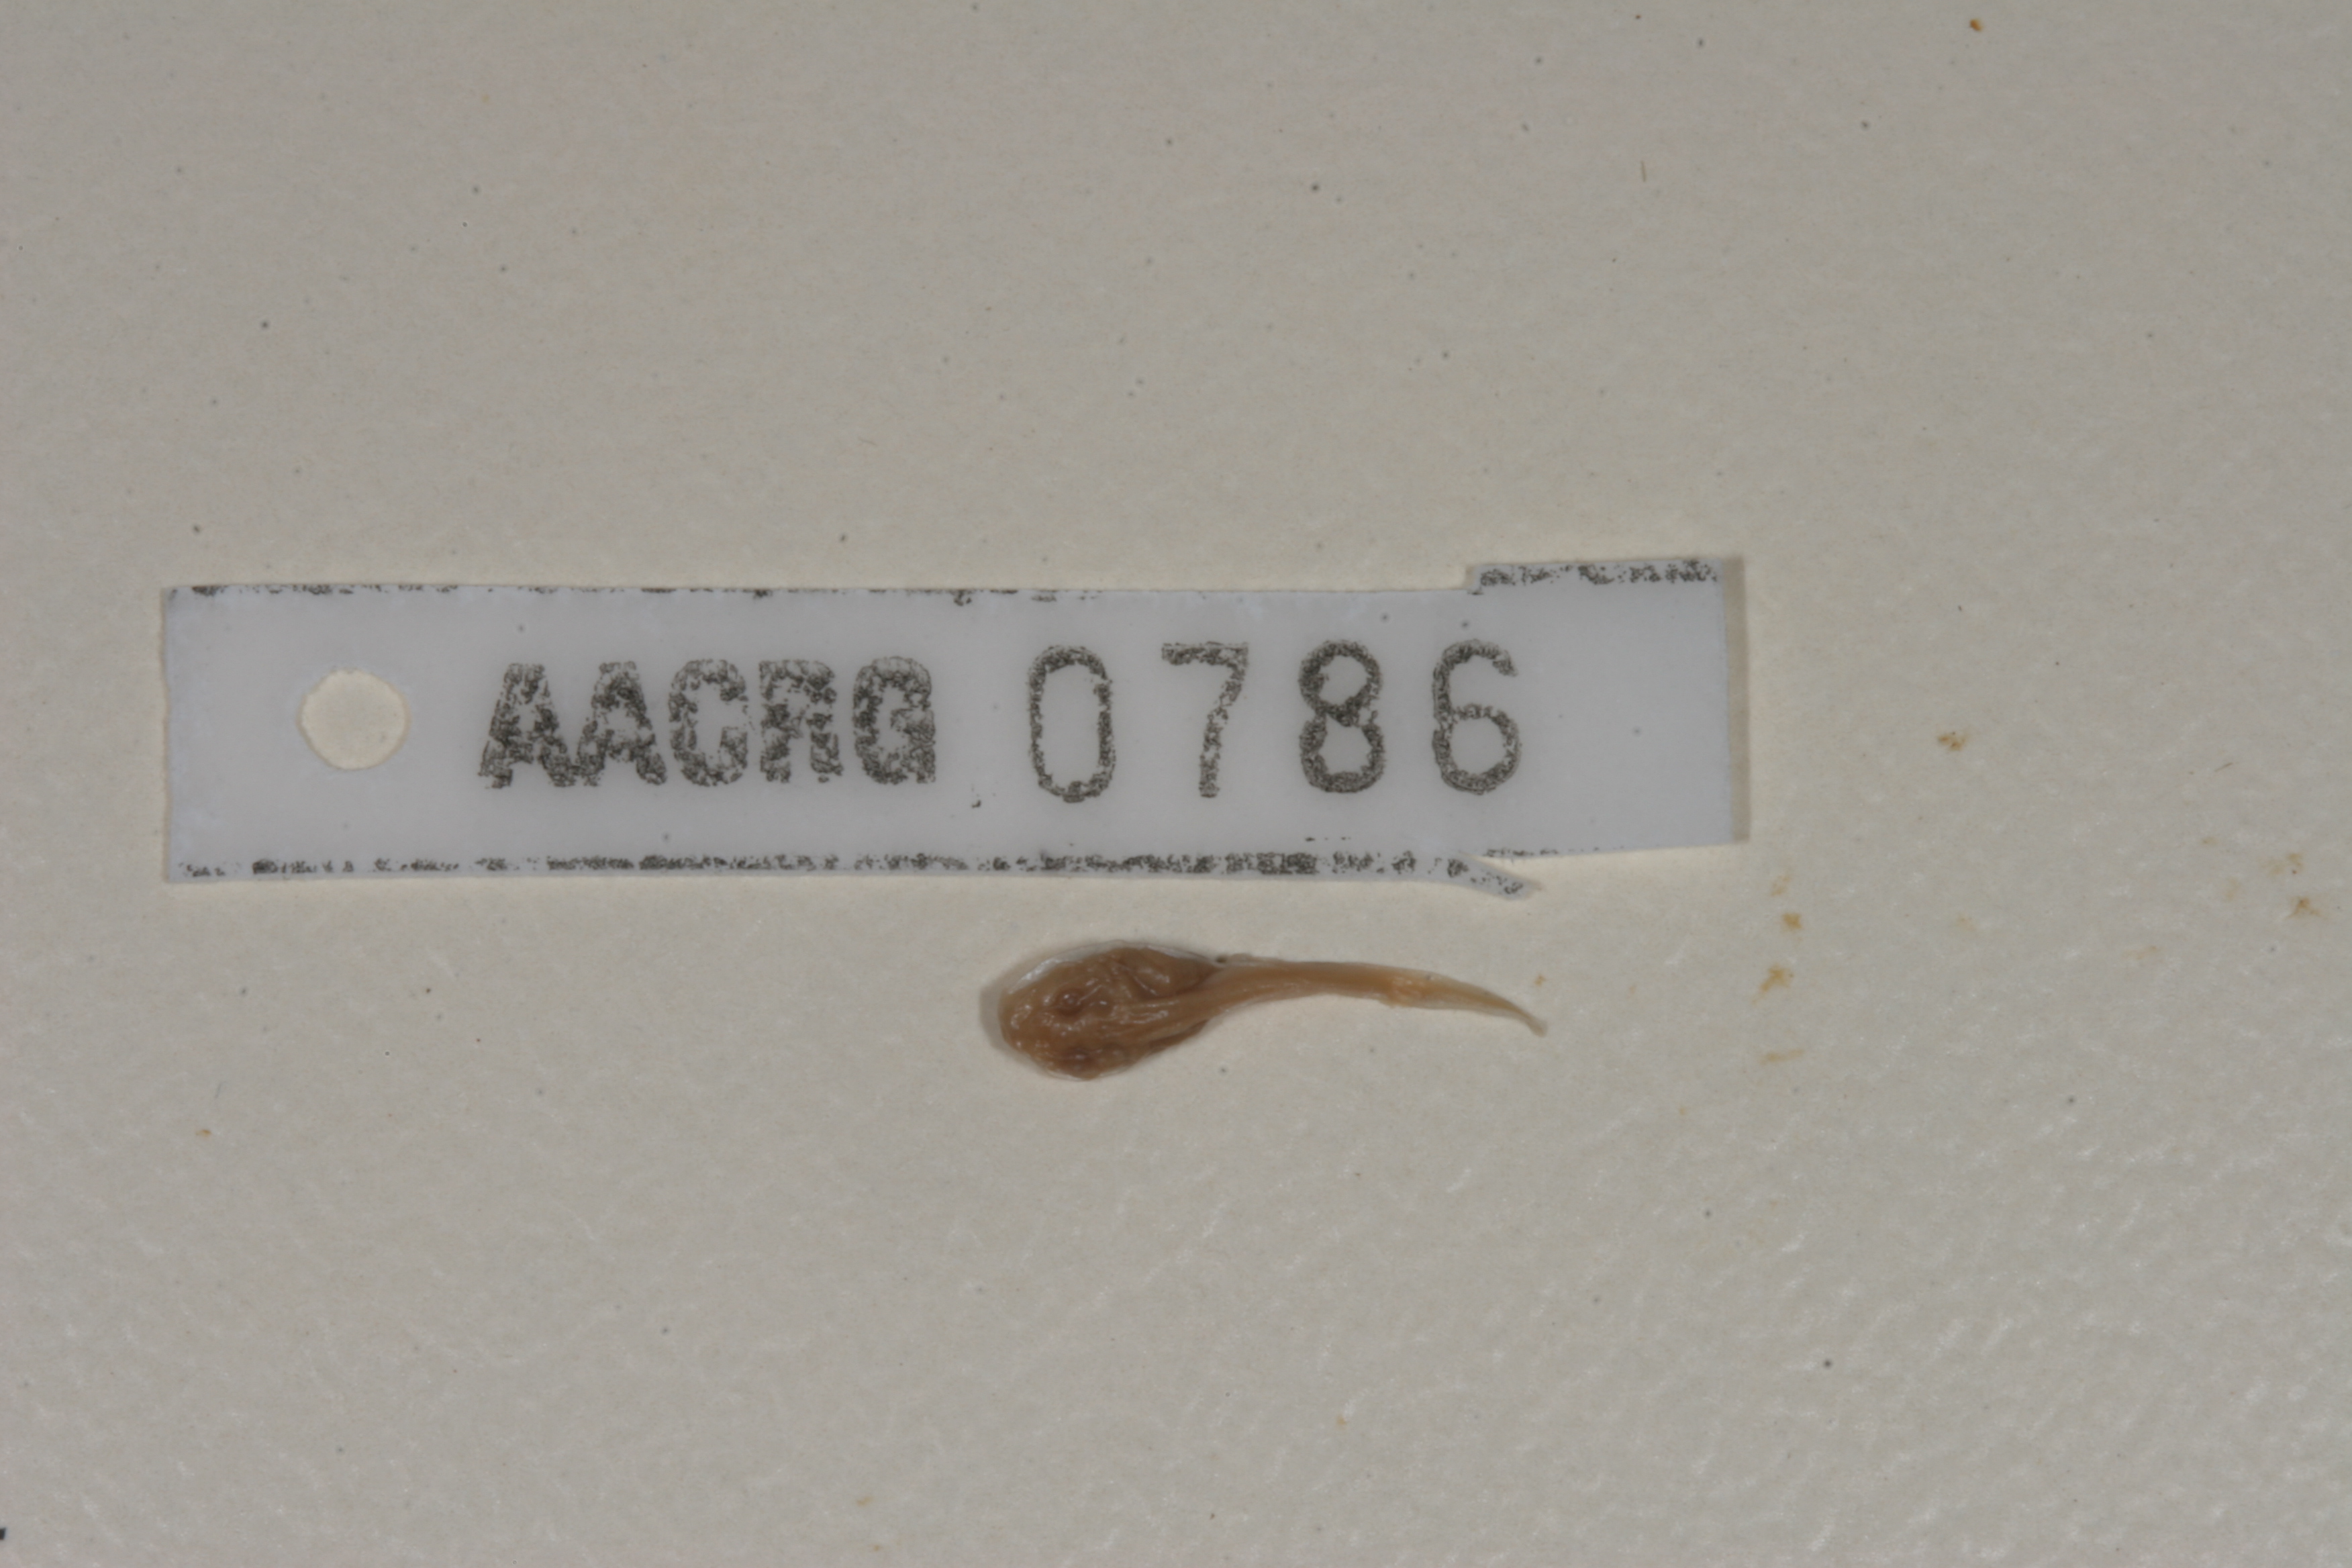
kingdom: Animalia
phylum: Chordata
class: Amphibia
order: Anura
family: Bufonidae
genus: Sclerophrys
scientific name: Sclerophrys pardalis
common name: Eastern leopard toad
